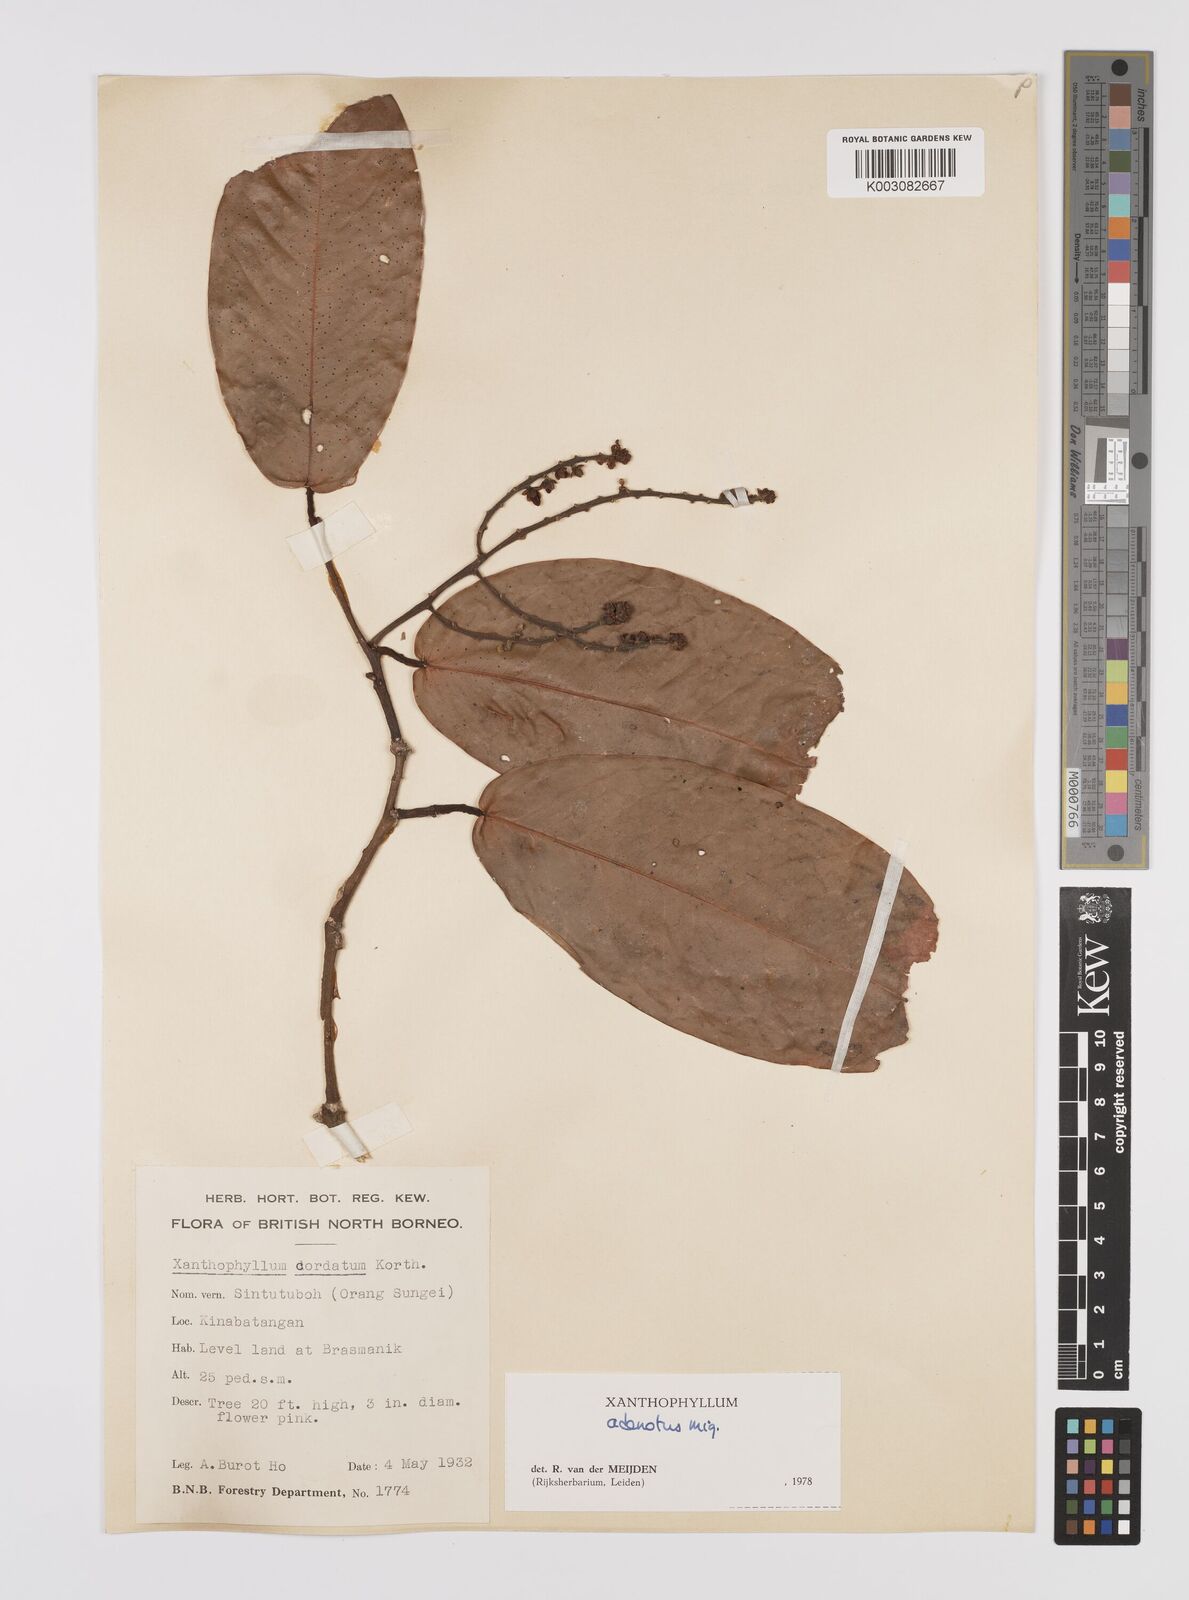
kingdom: Plantae
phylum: Tracheophyta
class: Magnoliopsida
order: Fabales
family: Polygalaceae
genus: Xanthophyllum
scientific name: Xanthophyllum adenotus
